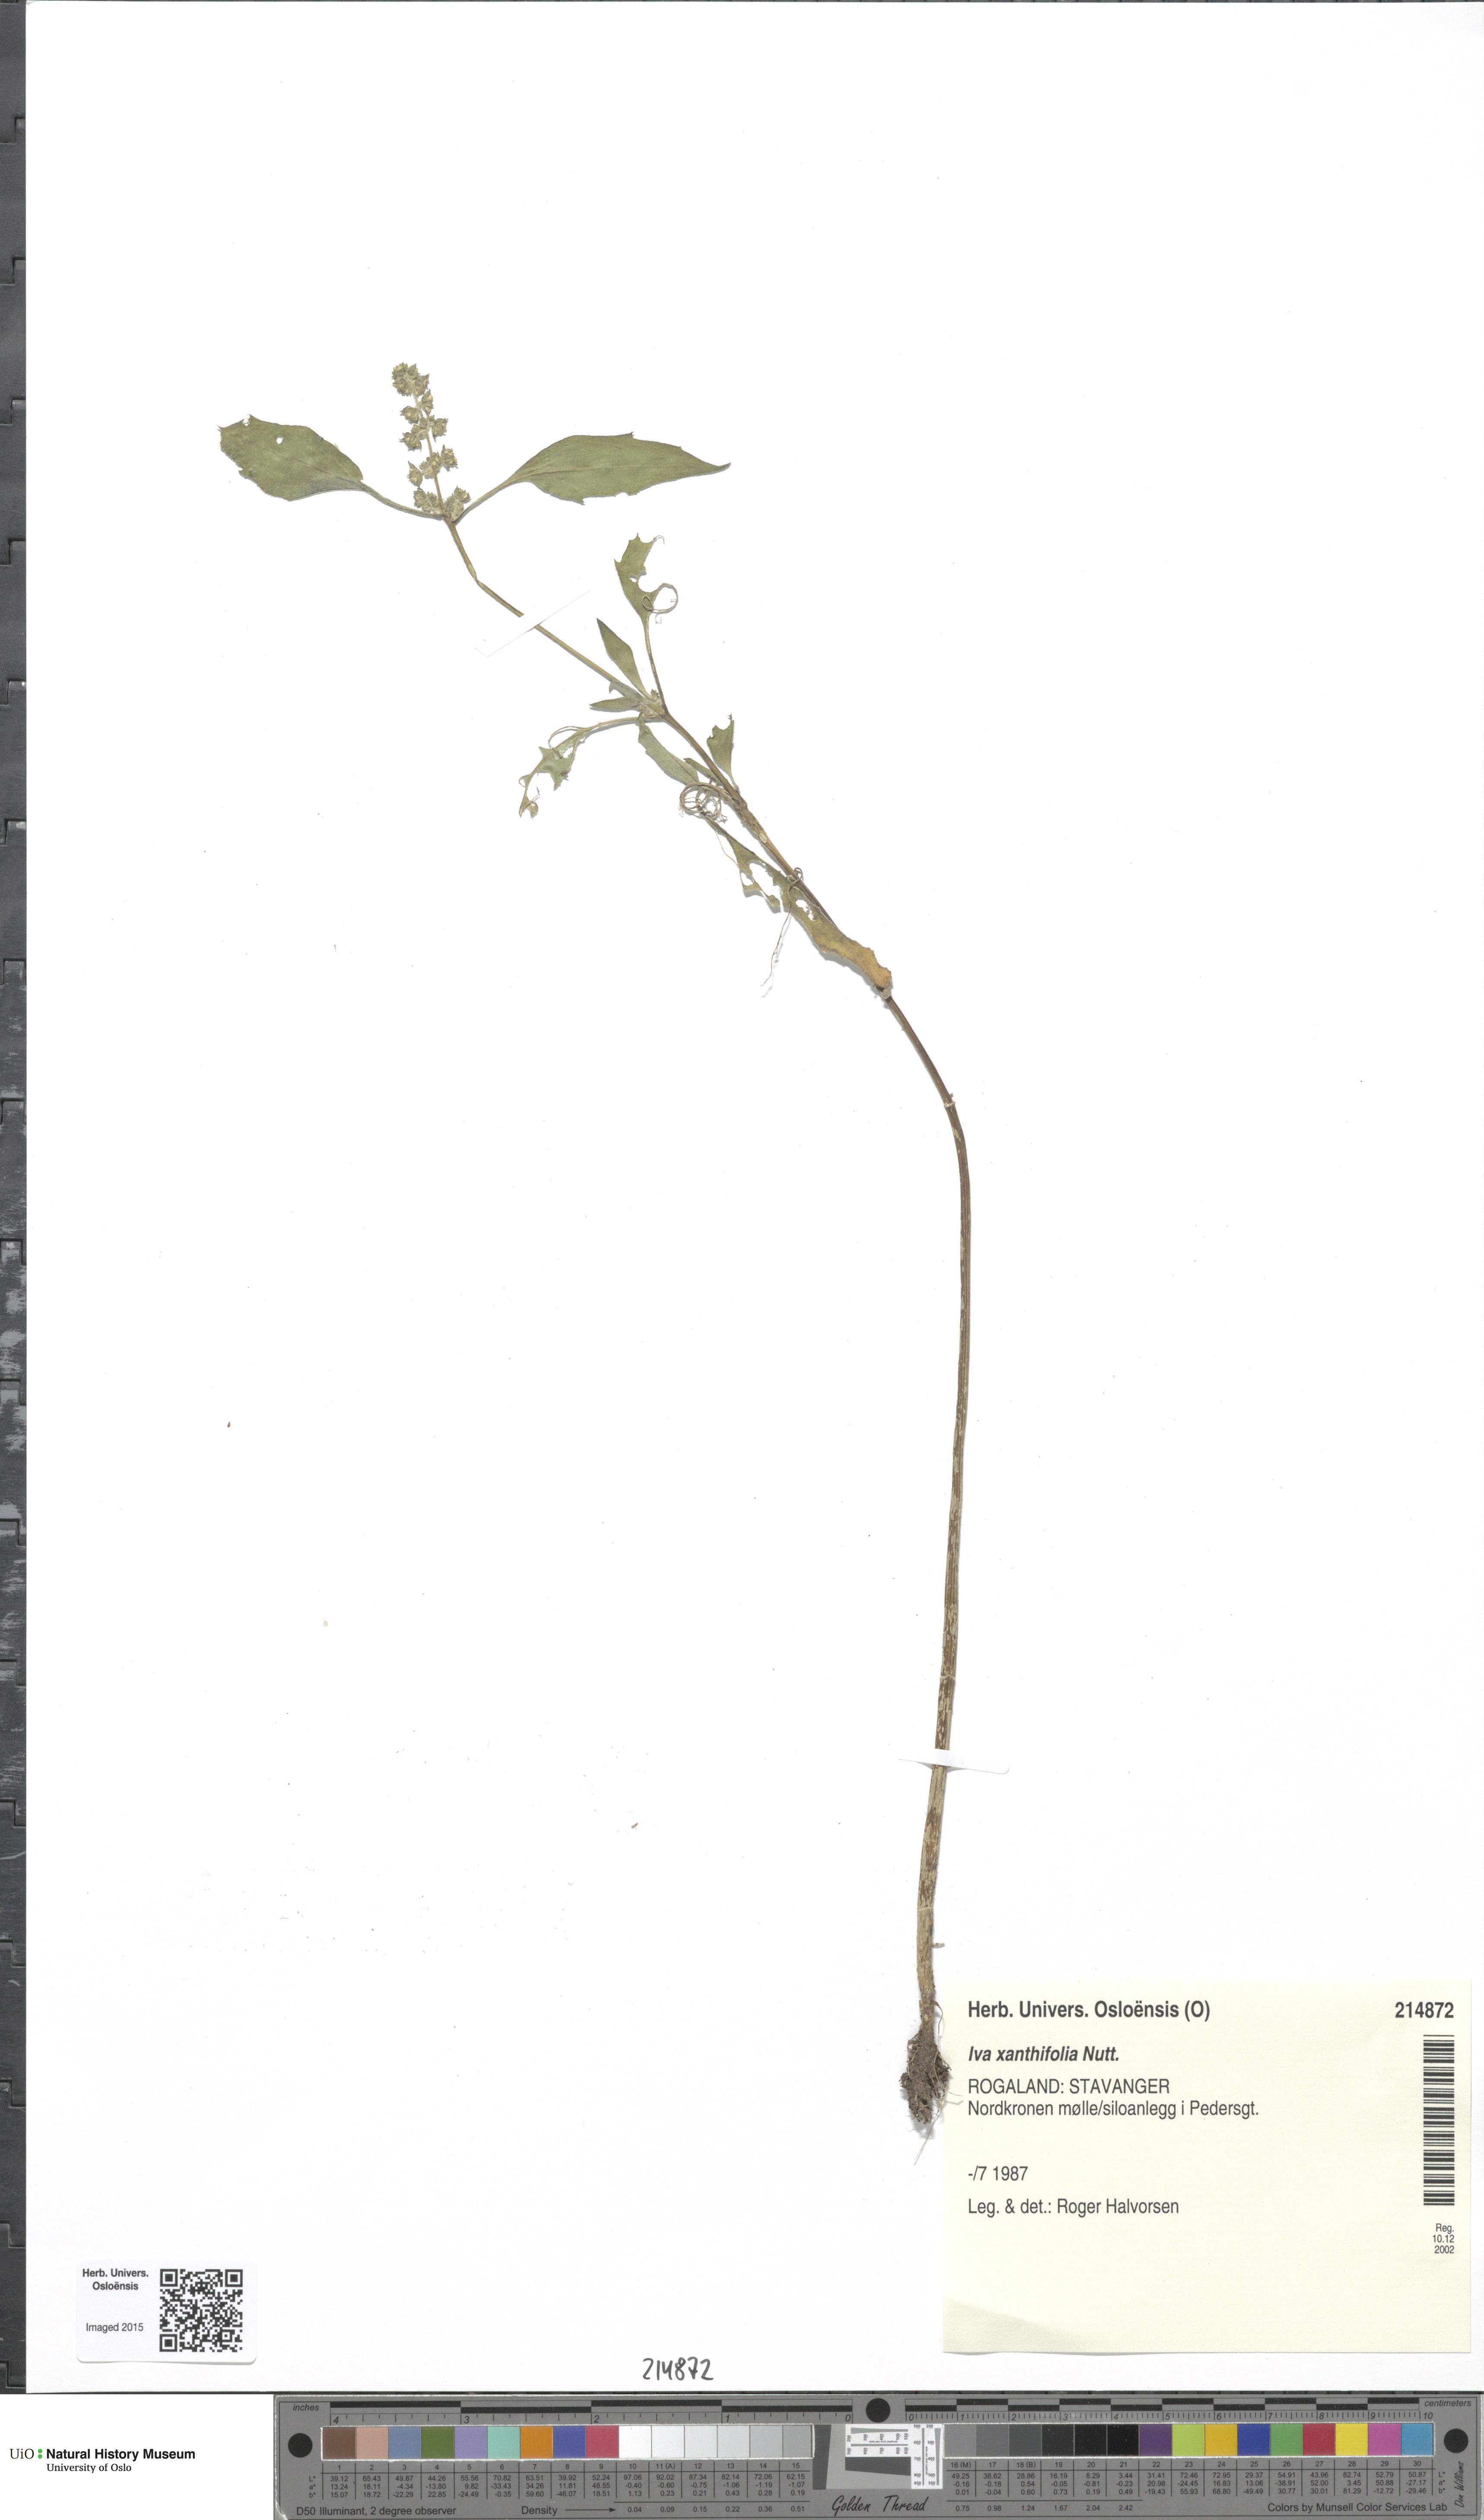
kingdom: Plantae
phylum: Tracheophyta
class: Magnoliopsida
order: Asterales
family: Asteraceae
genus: Cyclachaena
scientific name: Cyclachaena xanthiifolia
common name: Giant sumpweed
